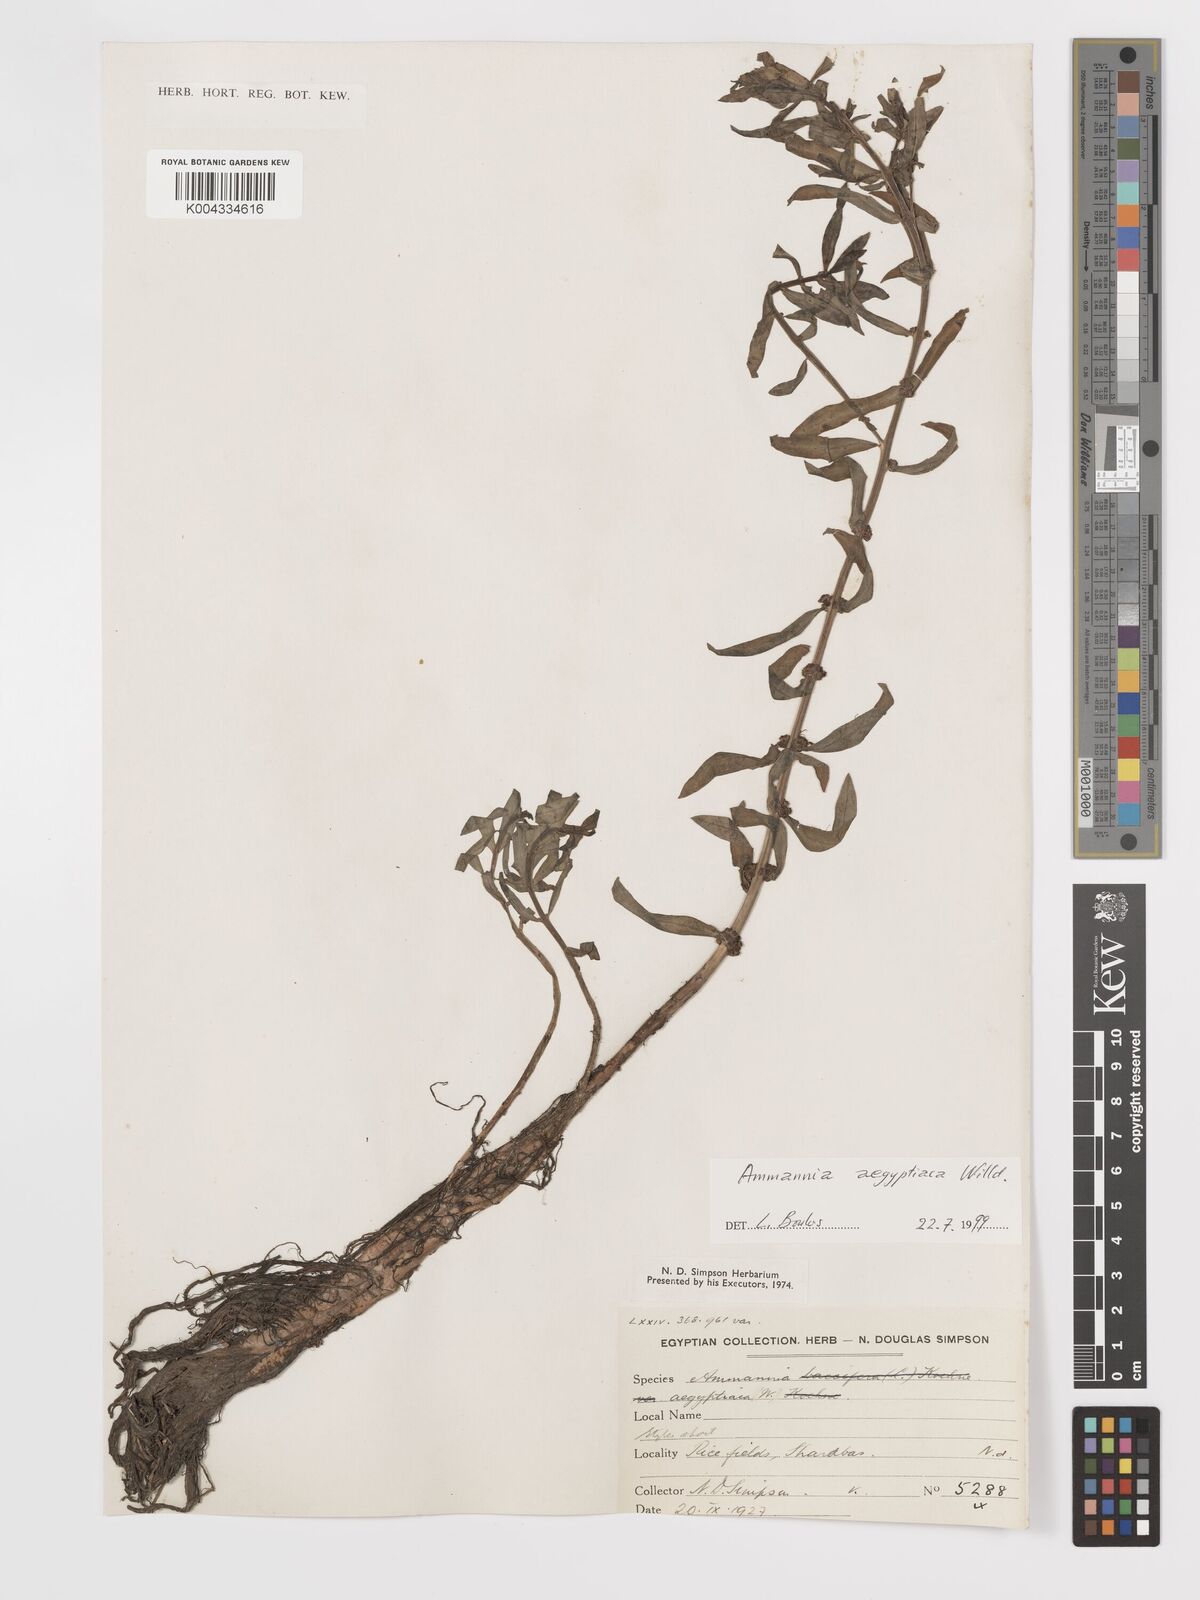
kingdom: Plantae
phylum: Tracheophyta
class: Magnoliopsida
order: Myrtales
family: Lythraceae
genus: Ammannia
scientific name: Ammannia
